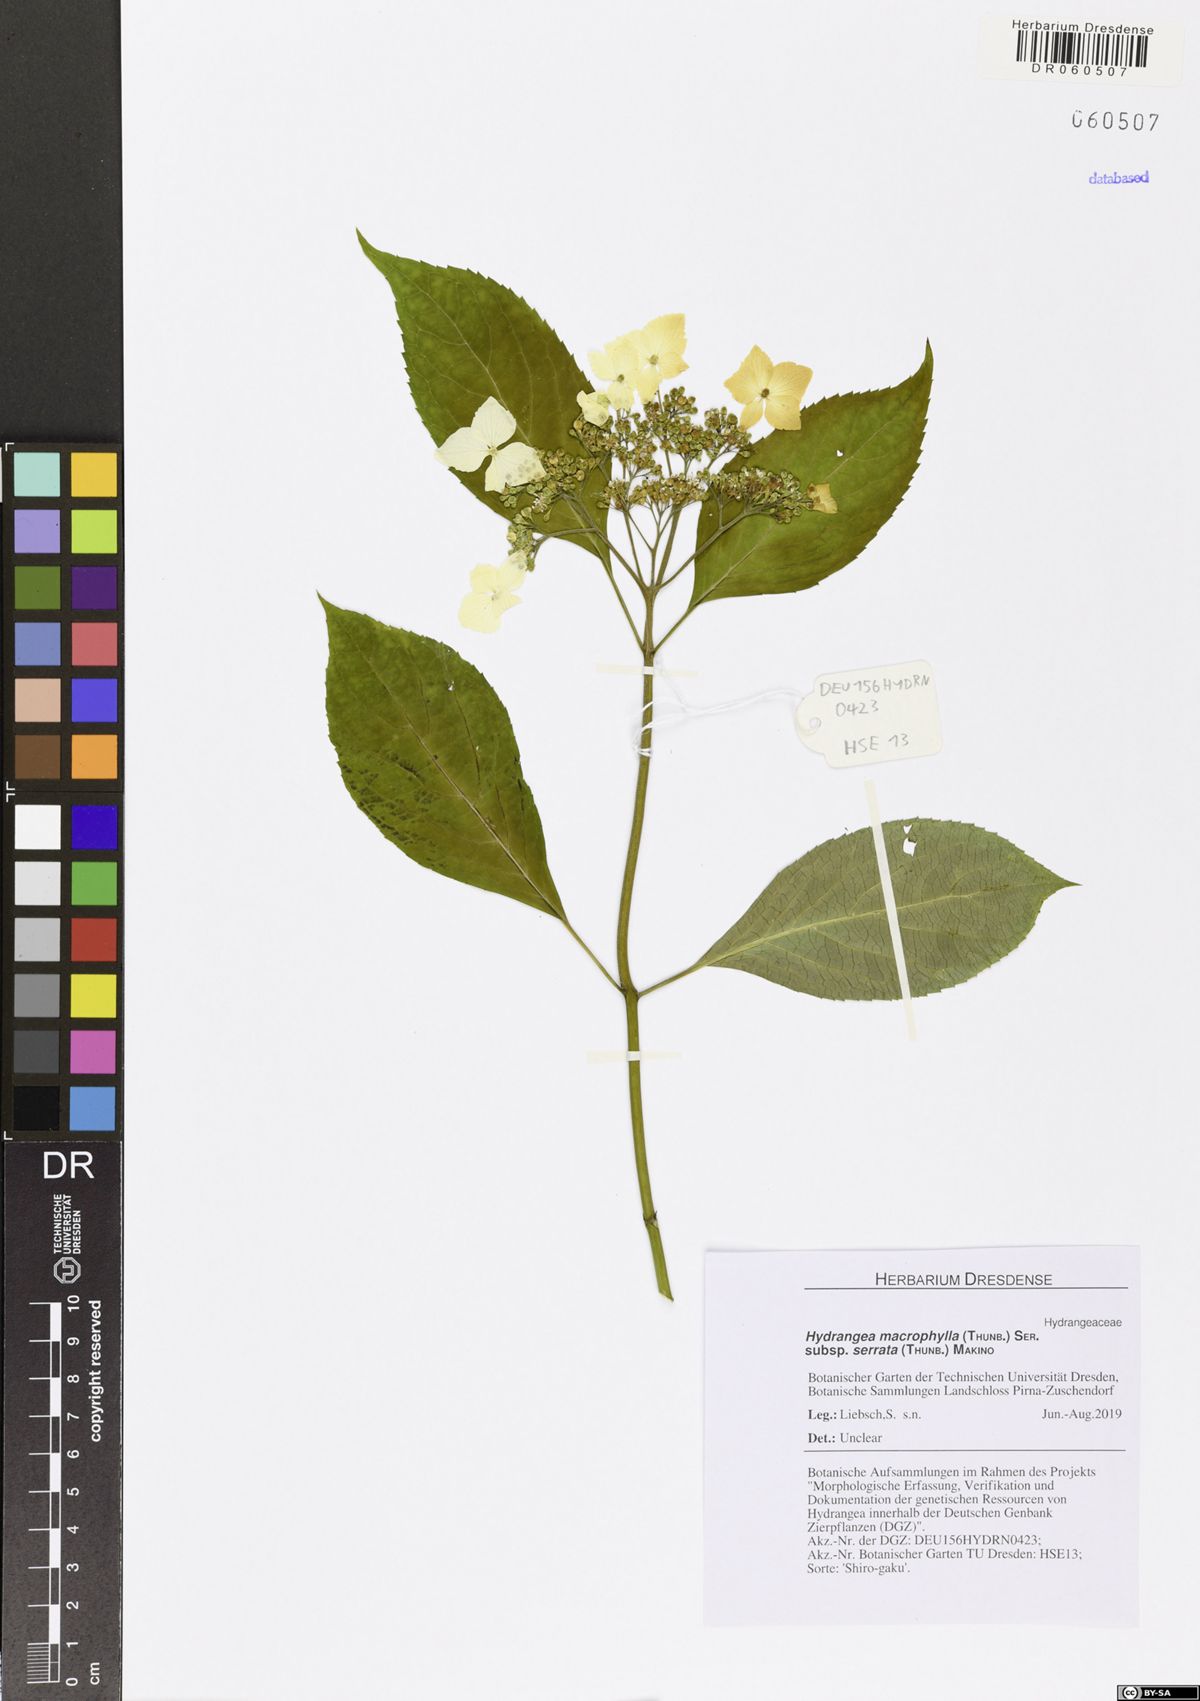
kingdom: Plantae
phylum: Tracheophyta
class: Magnoliopsida
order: Cornales
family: Hydrangeaceae
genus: Hydrangea
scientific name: Hydrangea serrata
